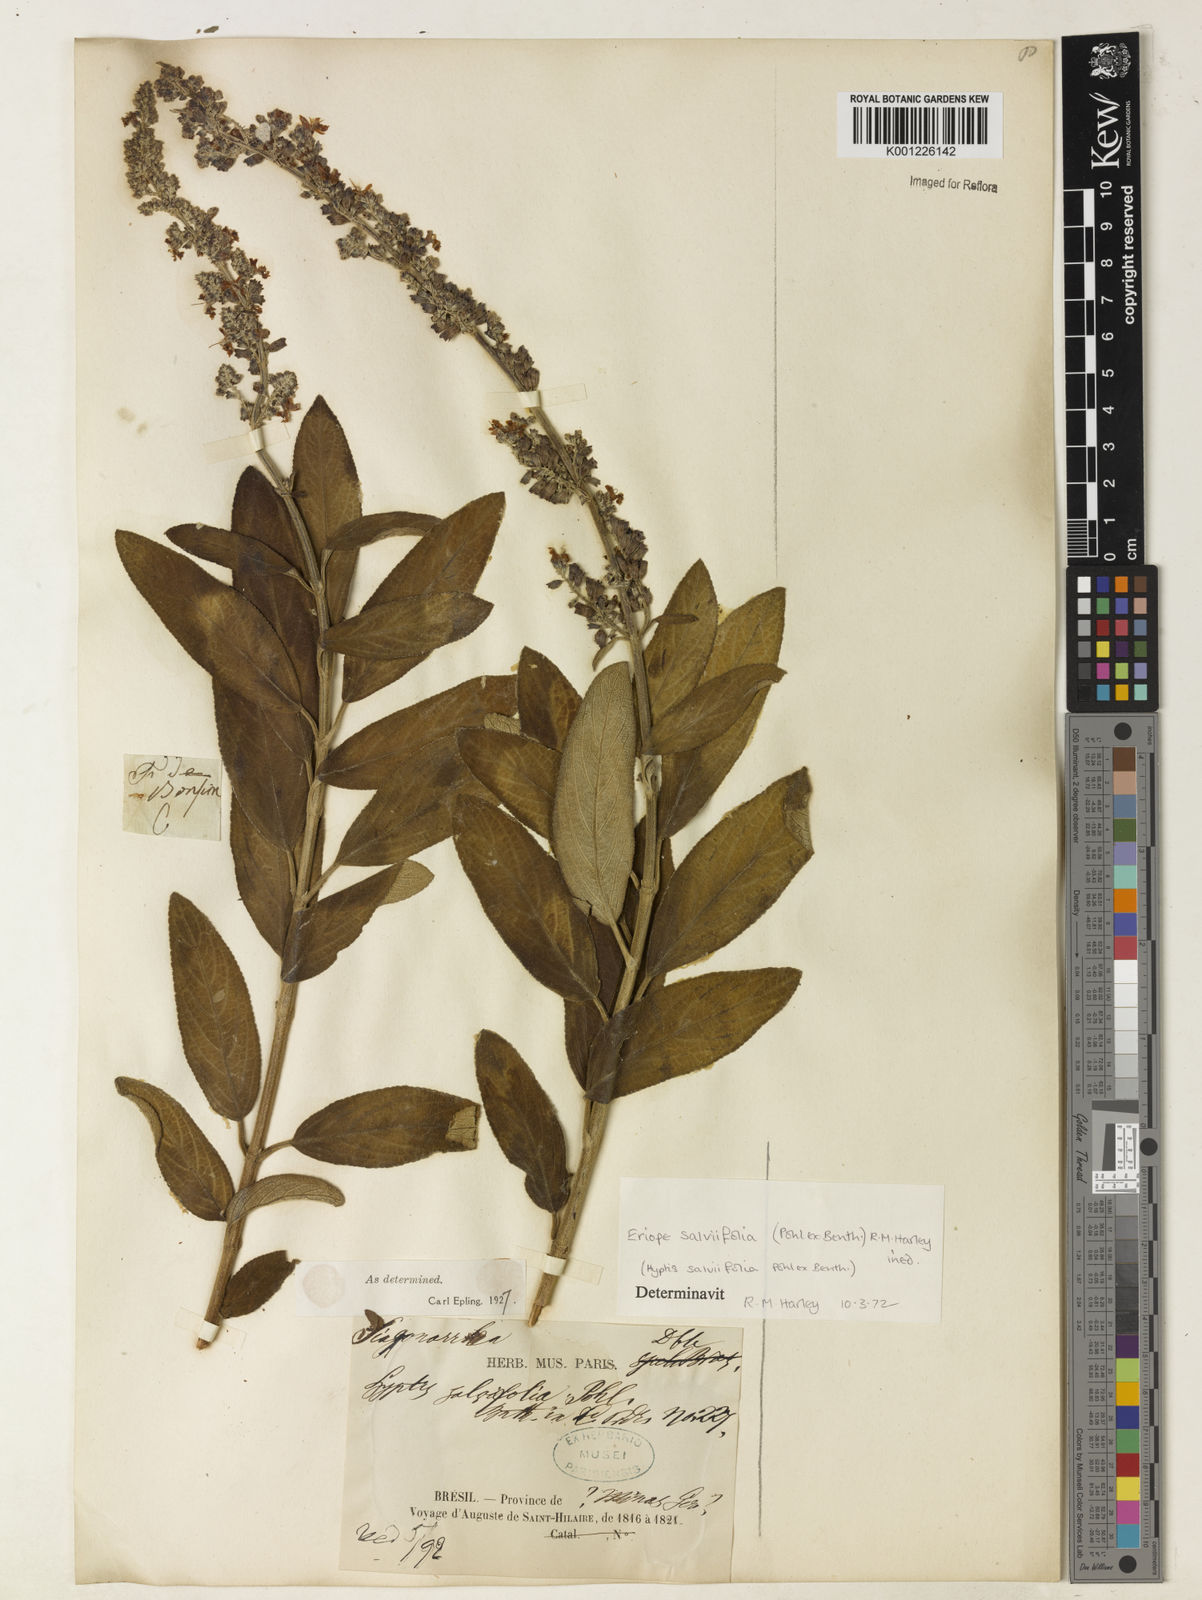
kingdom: Plantae
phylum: Tracheophyta
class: Magnoliopsida
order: Lamiales
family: Lamiaceae
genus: Eriope
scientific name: Eriope salviifolia
